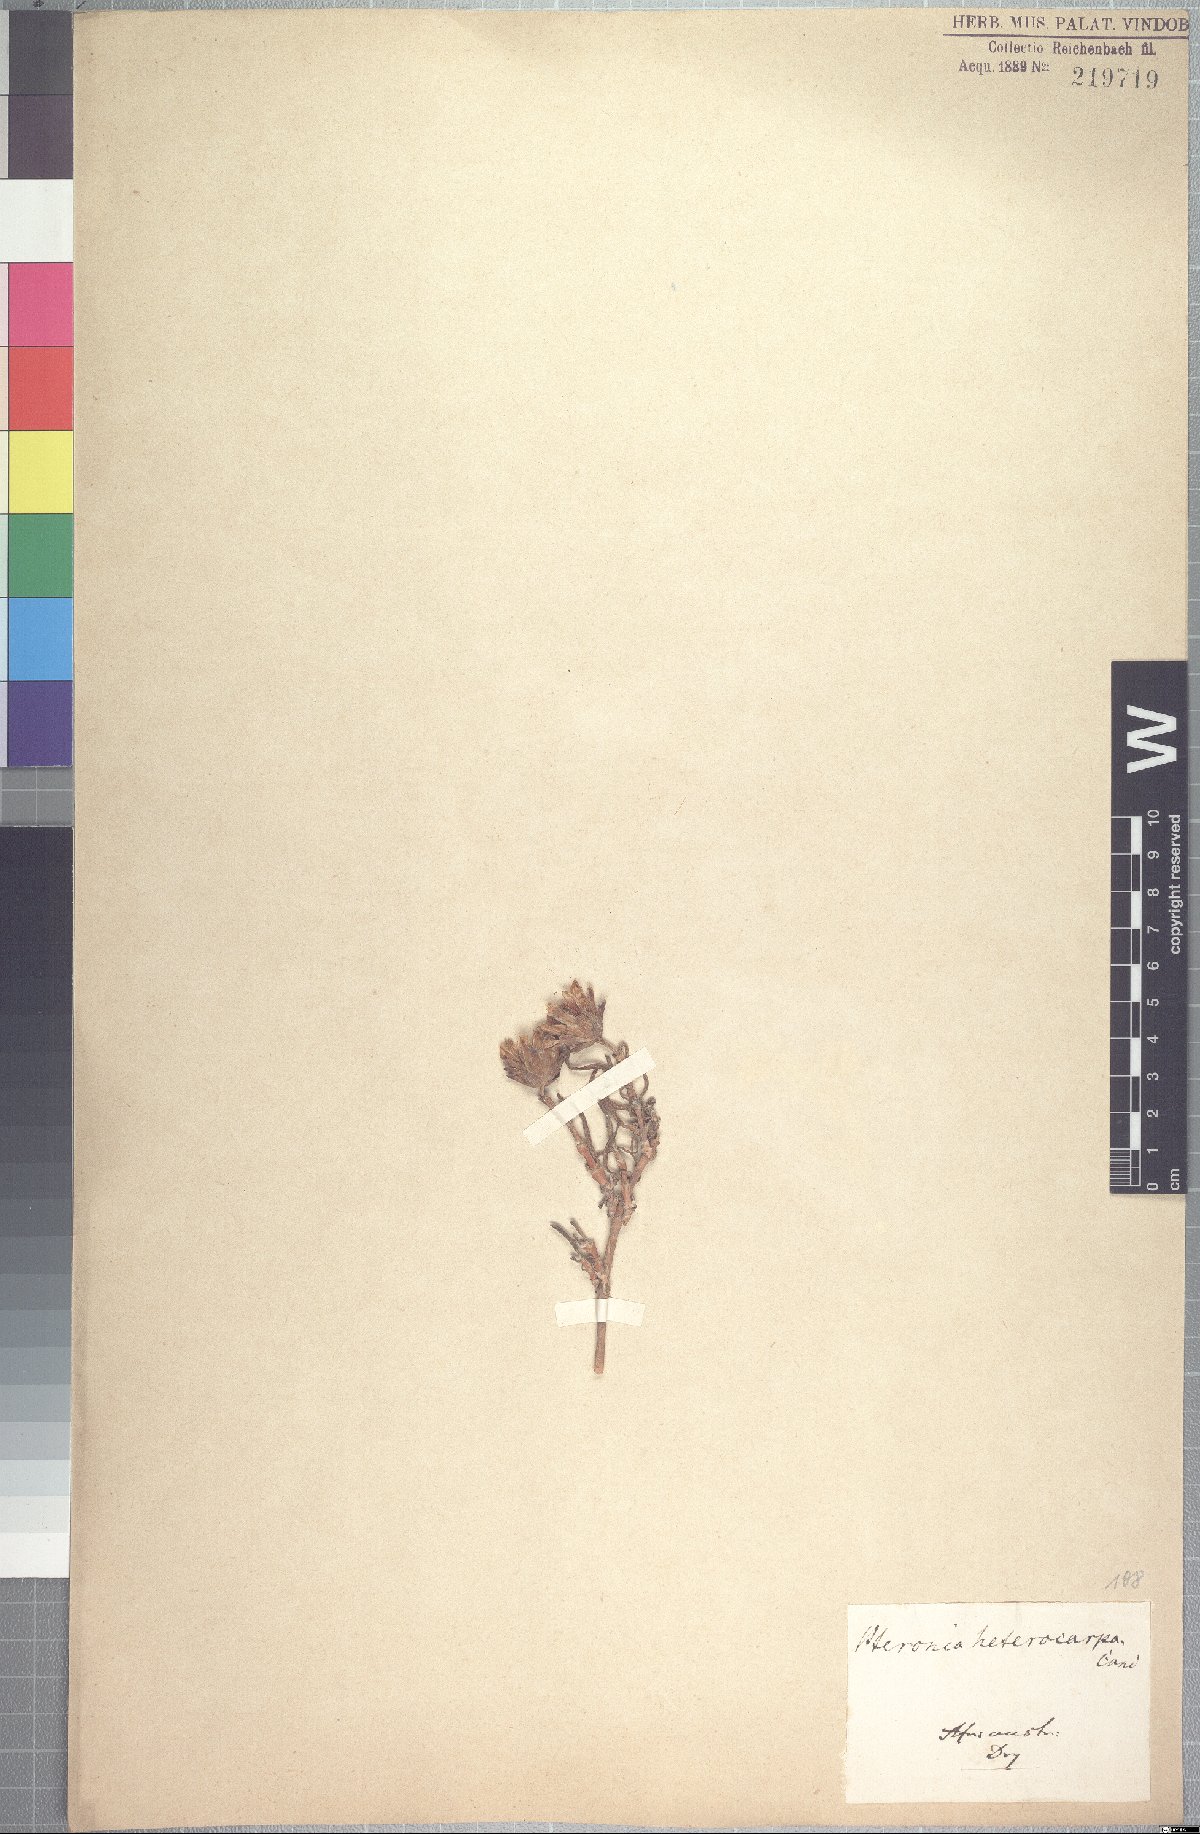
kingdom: Plantae
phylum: Tracheophyta
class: Magnoliopsida
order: Asterales
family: Asteraceae
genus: Pteronia
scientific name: Pteronia heterocarpa
